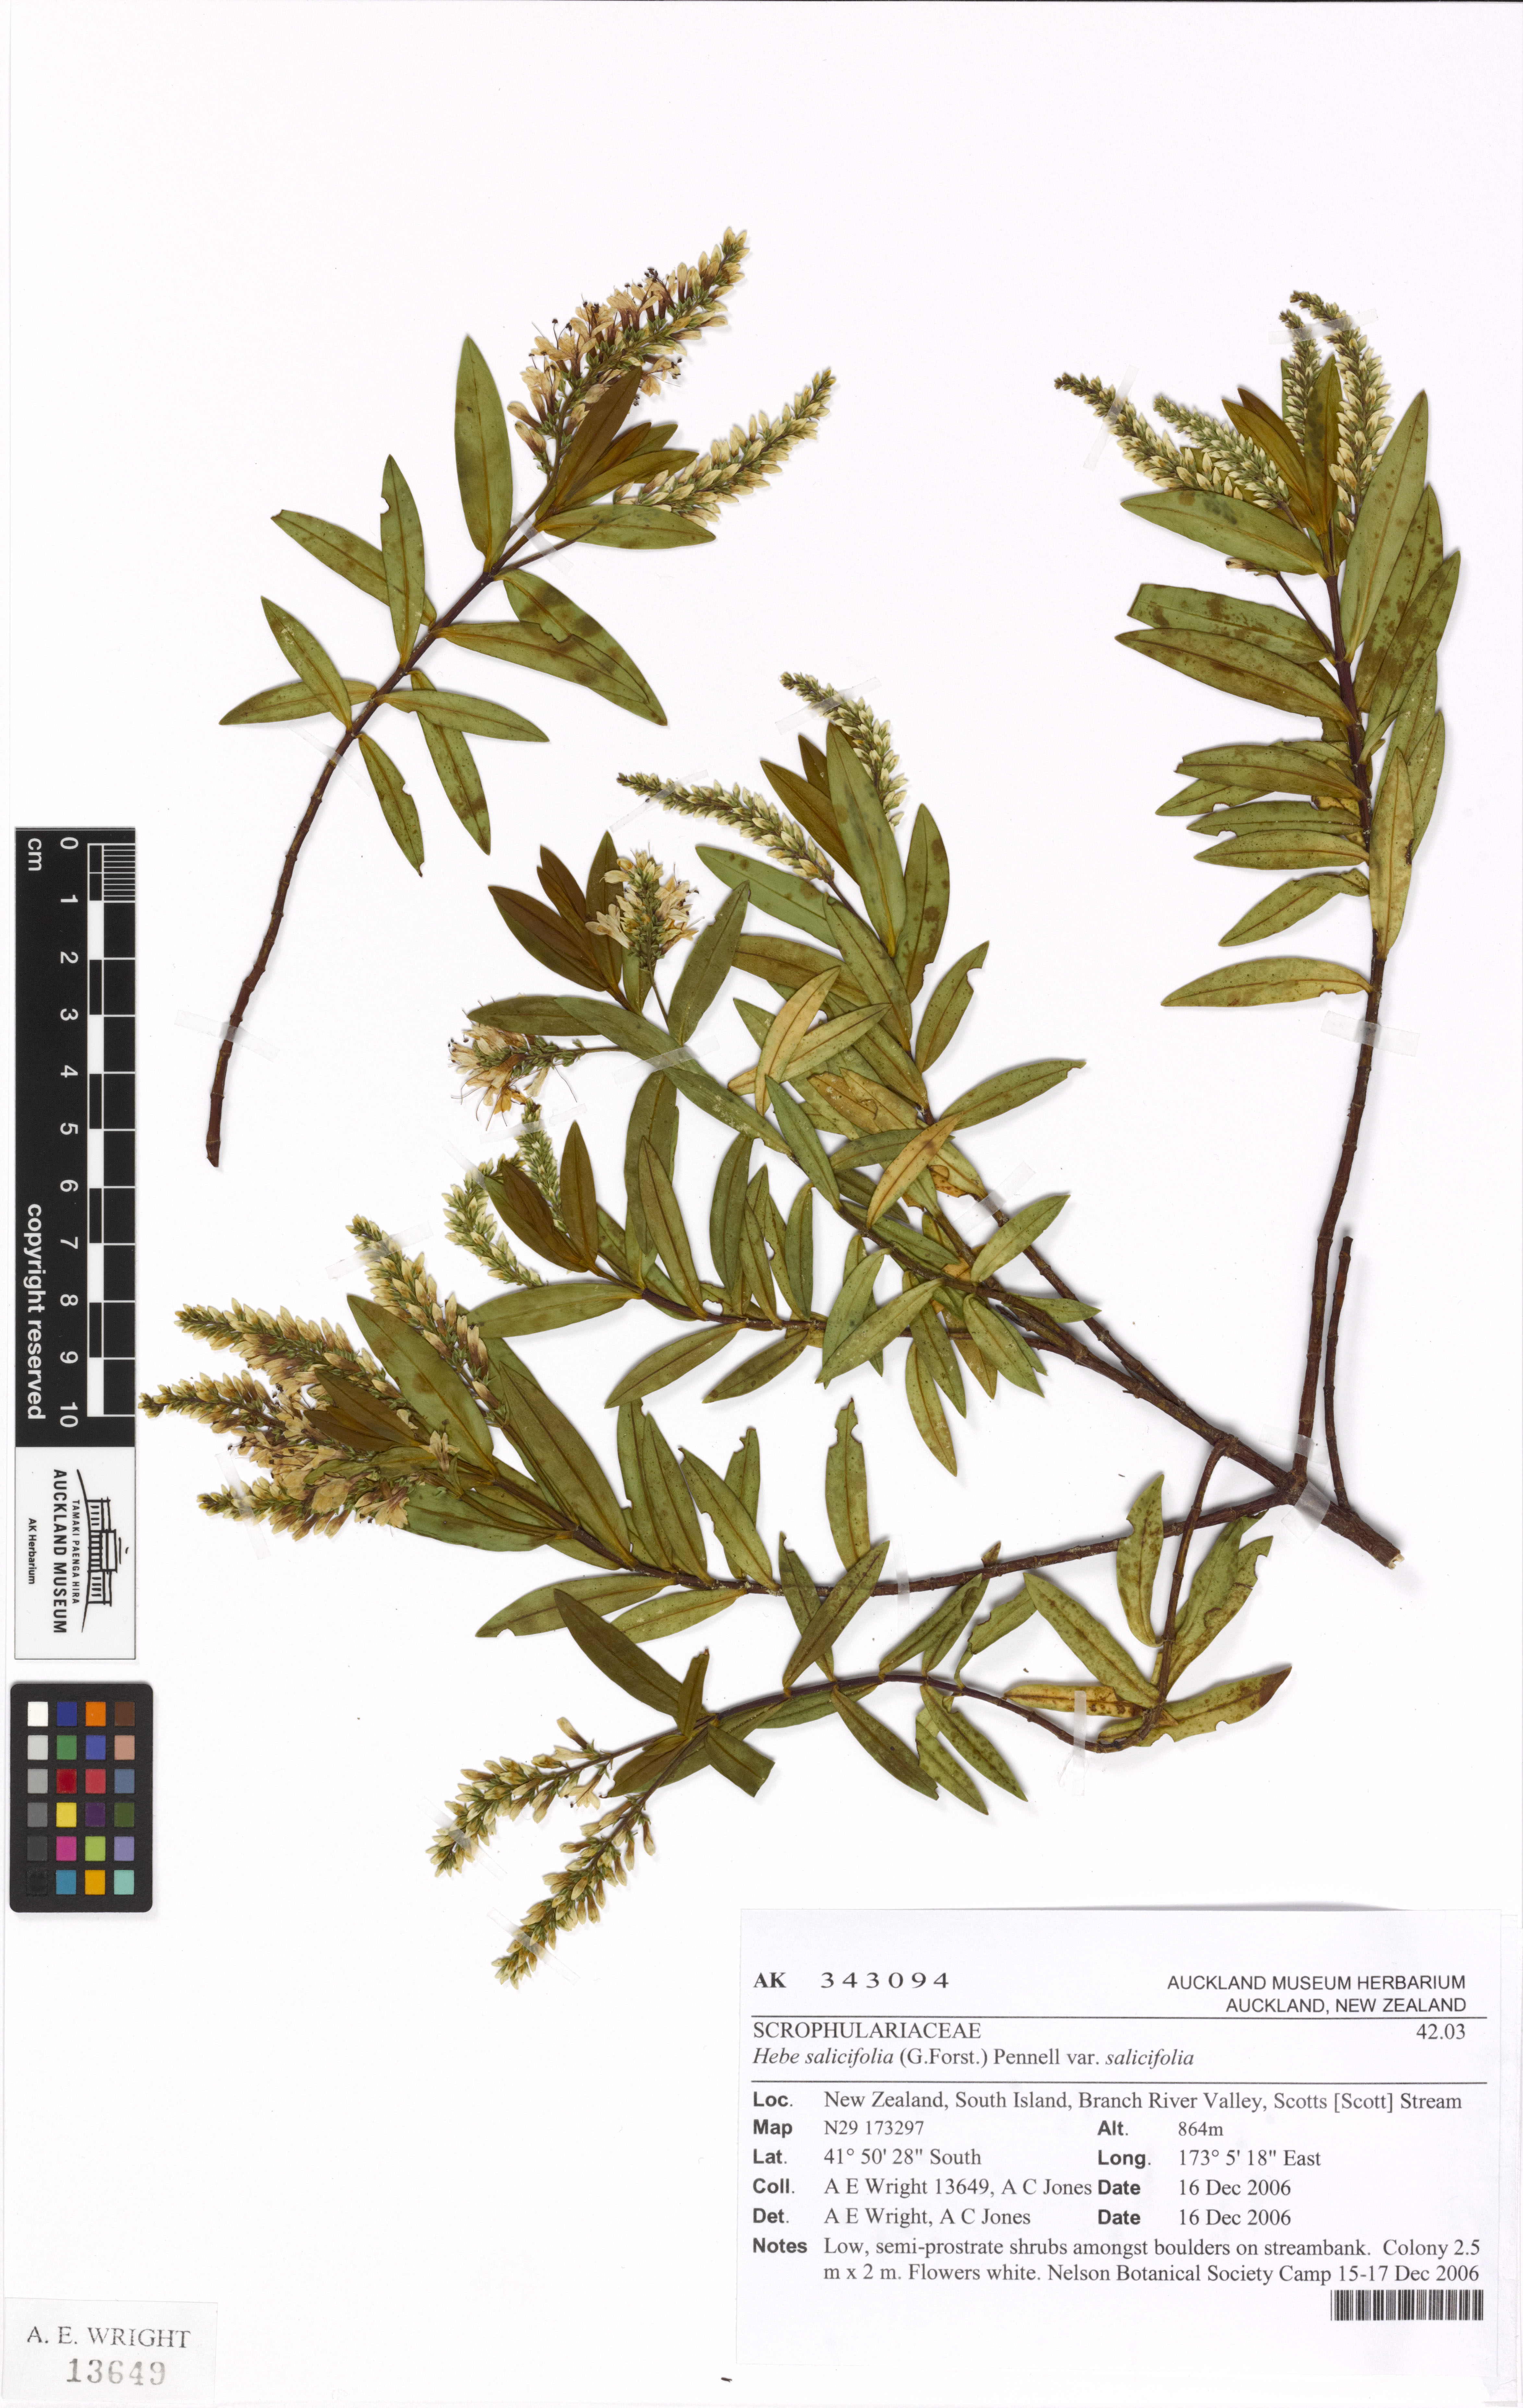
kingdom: Plantae
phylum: Tracheophyta
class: Magnoliopsida
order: Lamiales
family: Plantaginaceae
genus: Veronica
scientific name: Veronica
